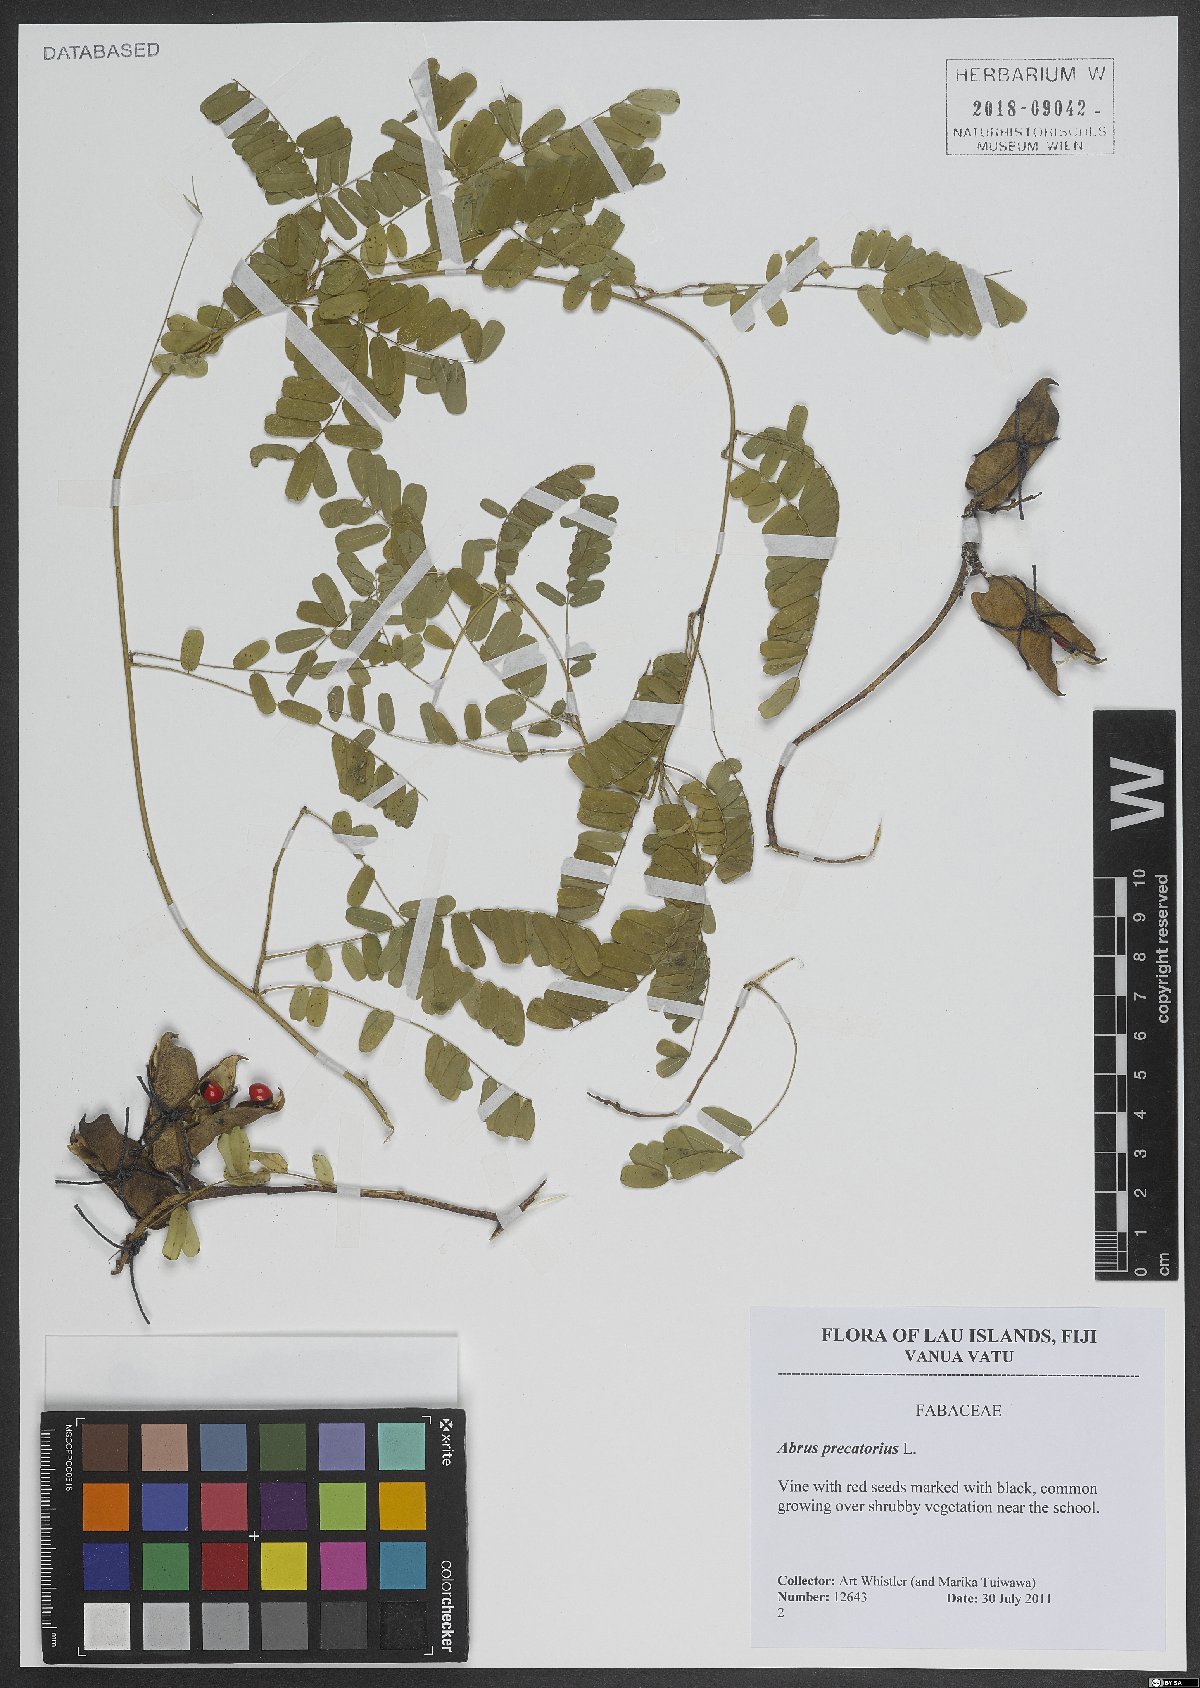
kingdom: Plantae
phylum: Tracheophyta
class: Magnoliopsida
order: Fabales
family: Fabaceae
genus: Abrus
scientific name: Abrus precatorius
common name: Rosarypea
